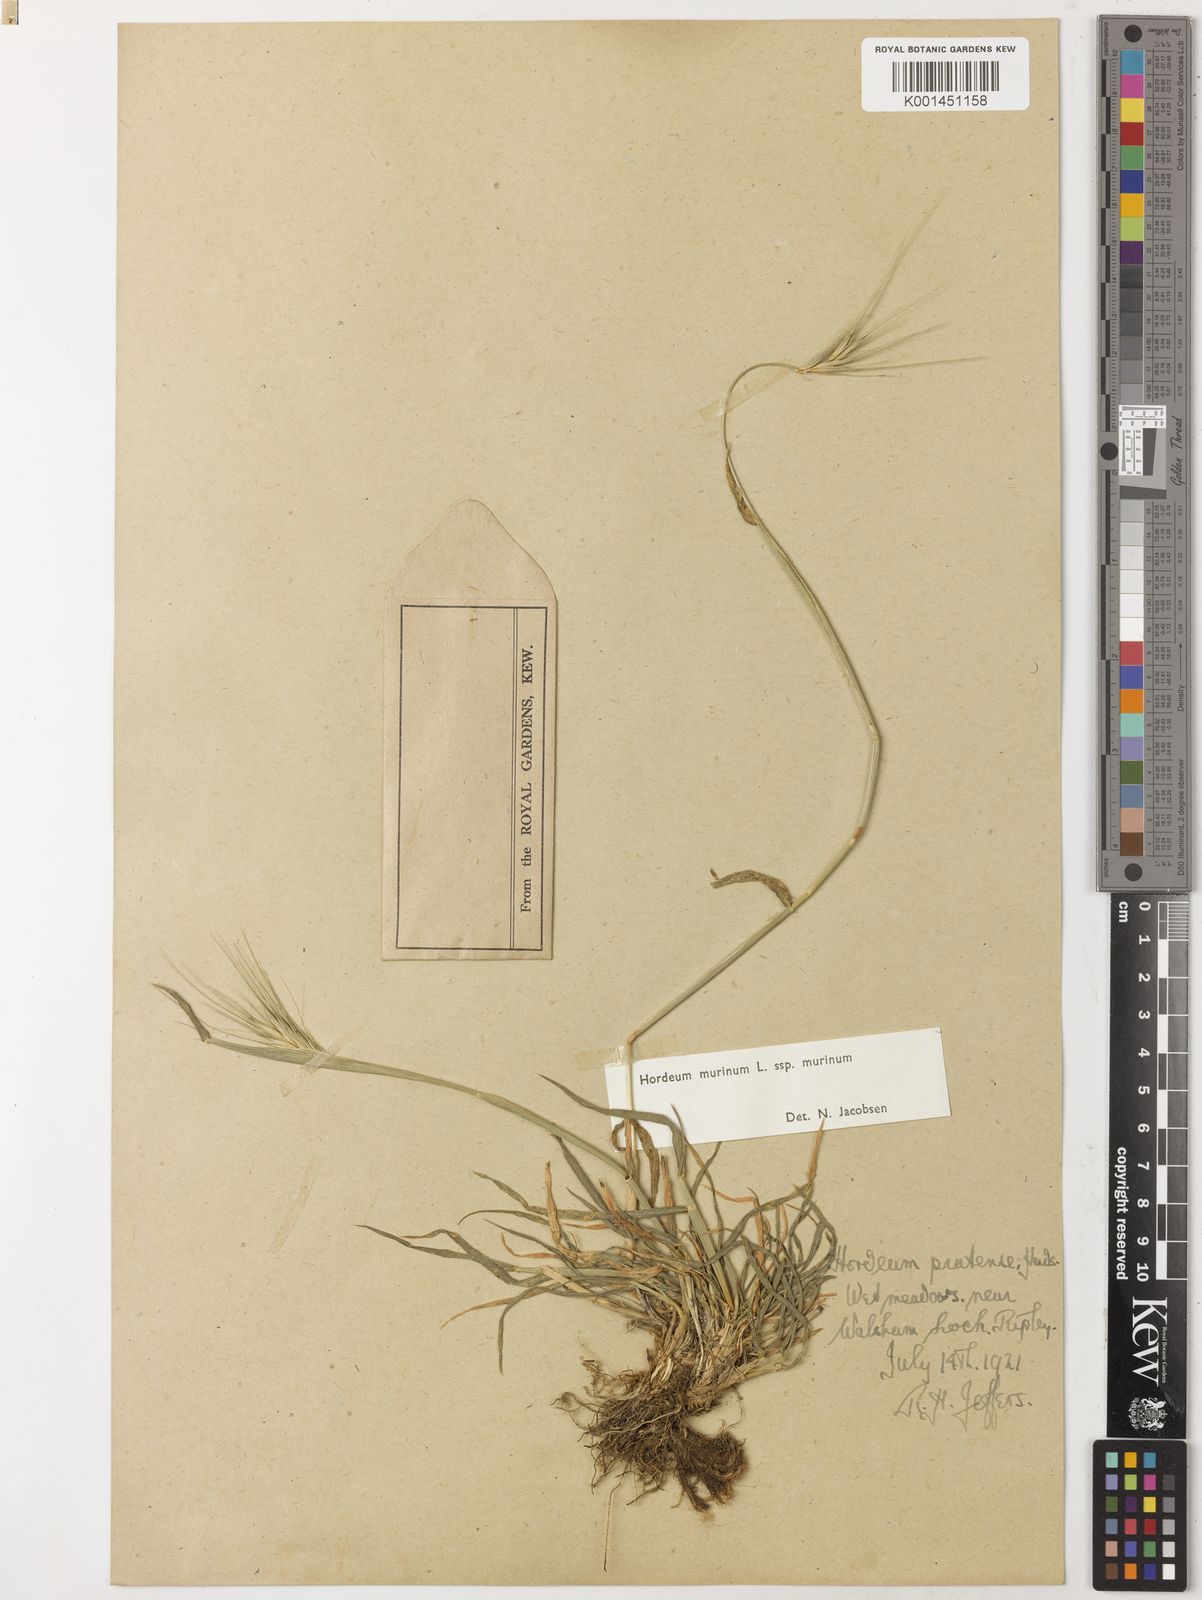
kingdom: Plantae
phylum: Tracheophyta
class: Liliopsida
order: Poales
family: Poaceae
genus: Hordeum
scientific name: Hordeum murinum
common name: Wall barley
